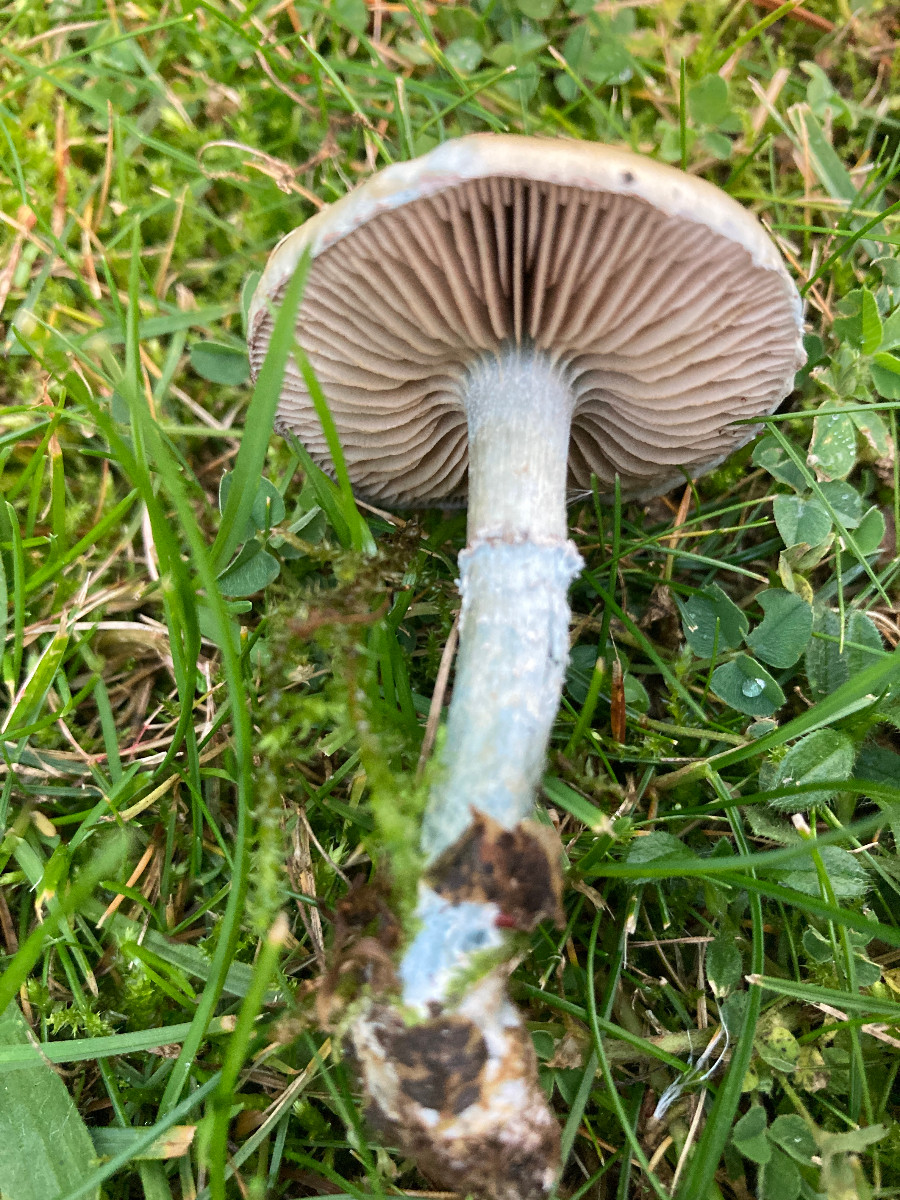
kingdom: Fungi
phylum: Basidiomycota
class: Agaricomycetes
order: Agaricales
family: Strophariaceae
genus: Stropharia
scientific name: Stropharia cyanea
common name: blågrøn bredblad
